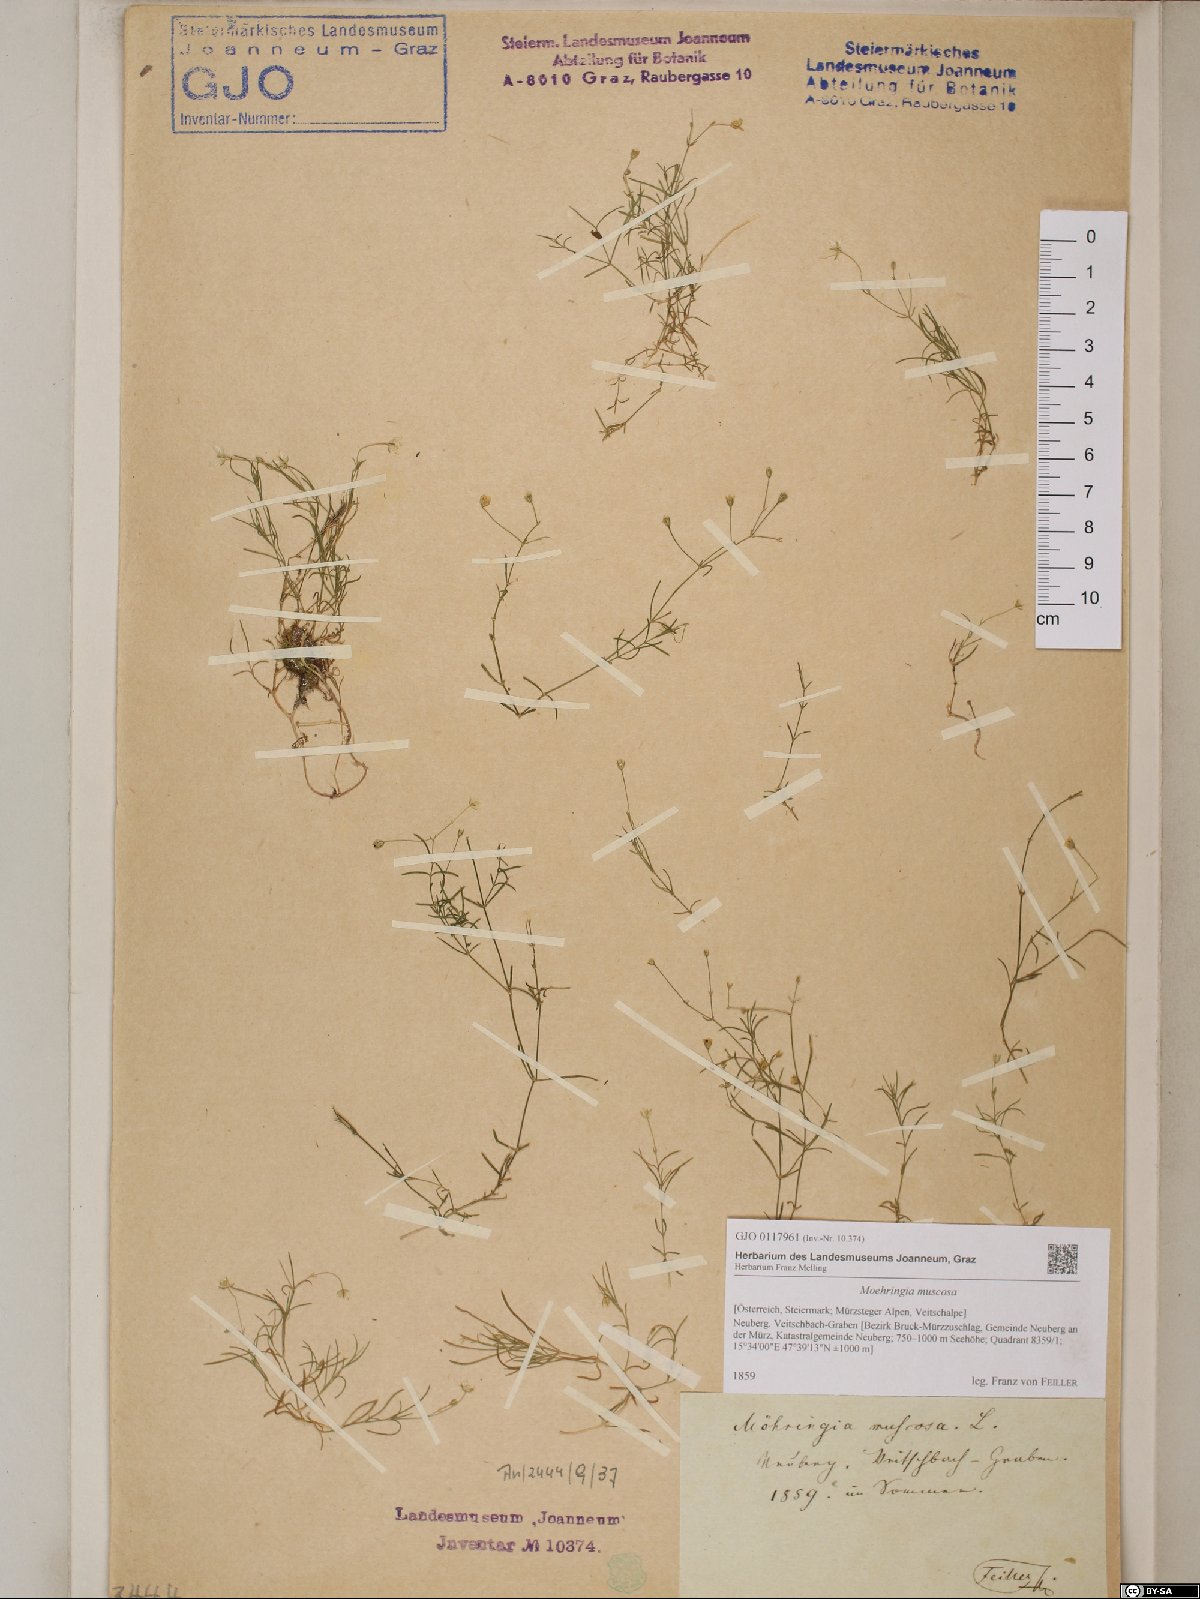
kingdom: Plantae
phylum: Tracheophyta
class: Magnoliopsida
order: Caryophyllales
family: Caryophyllaceae
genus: Moehringia
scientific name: Moehringia muscosa
